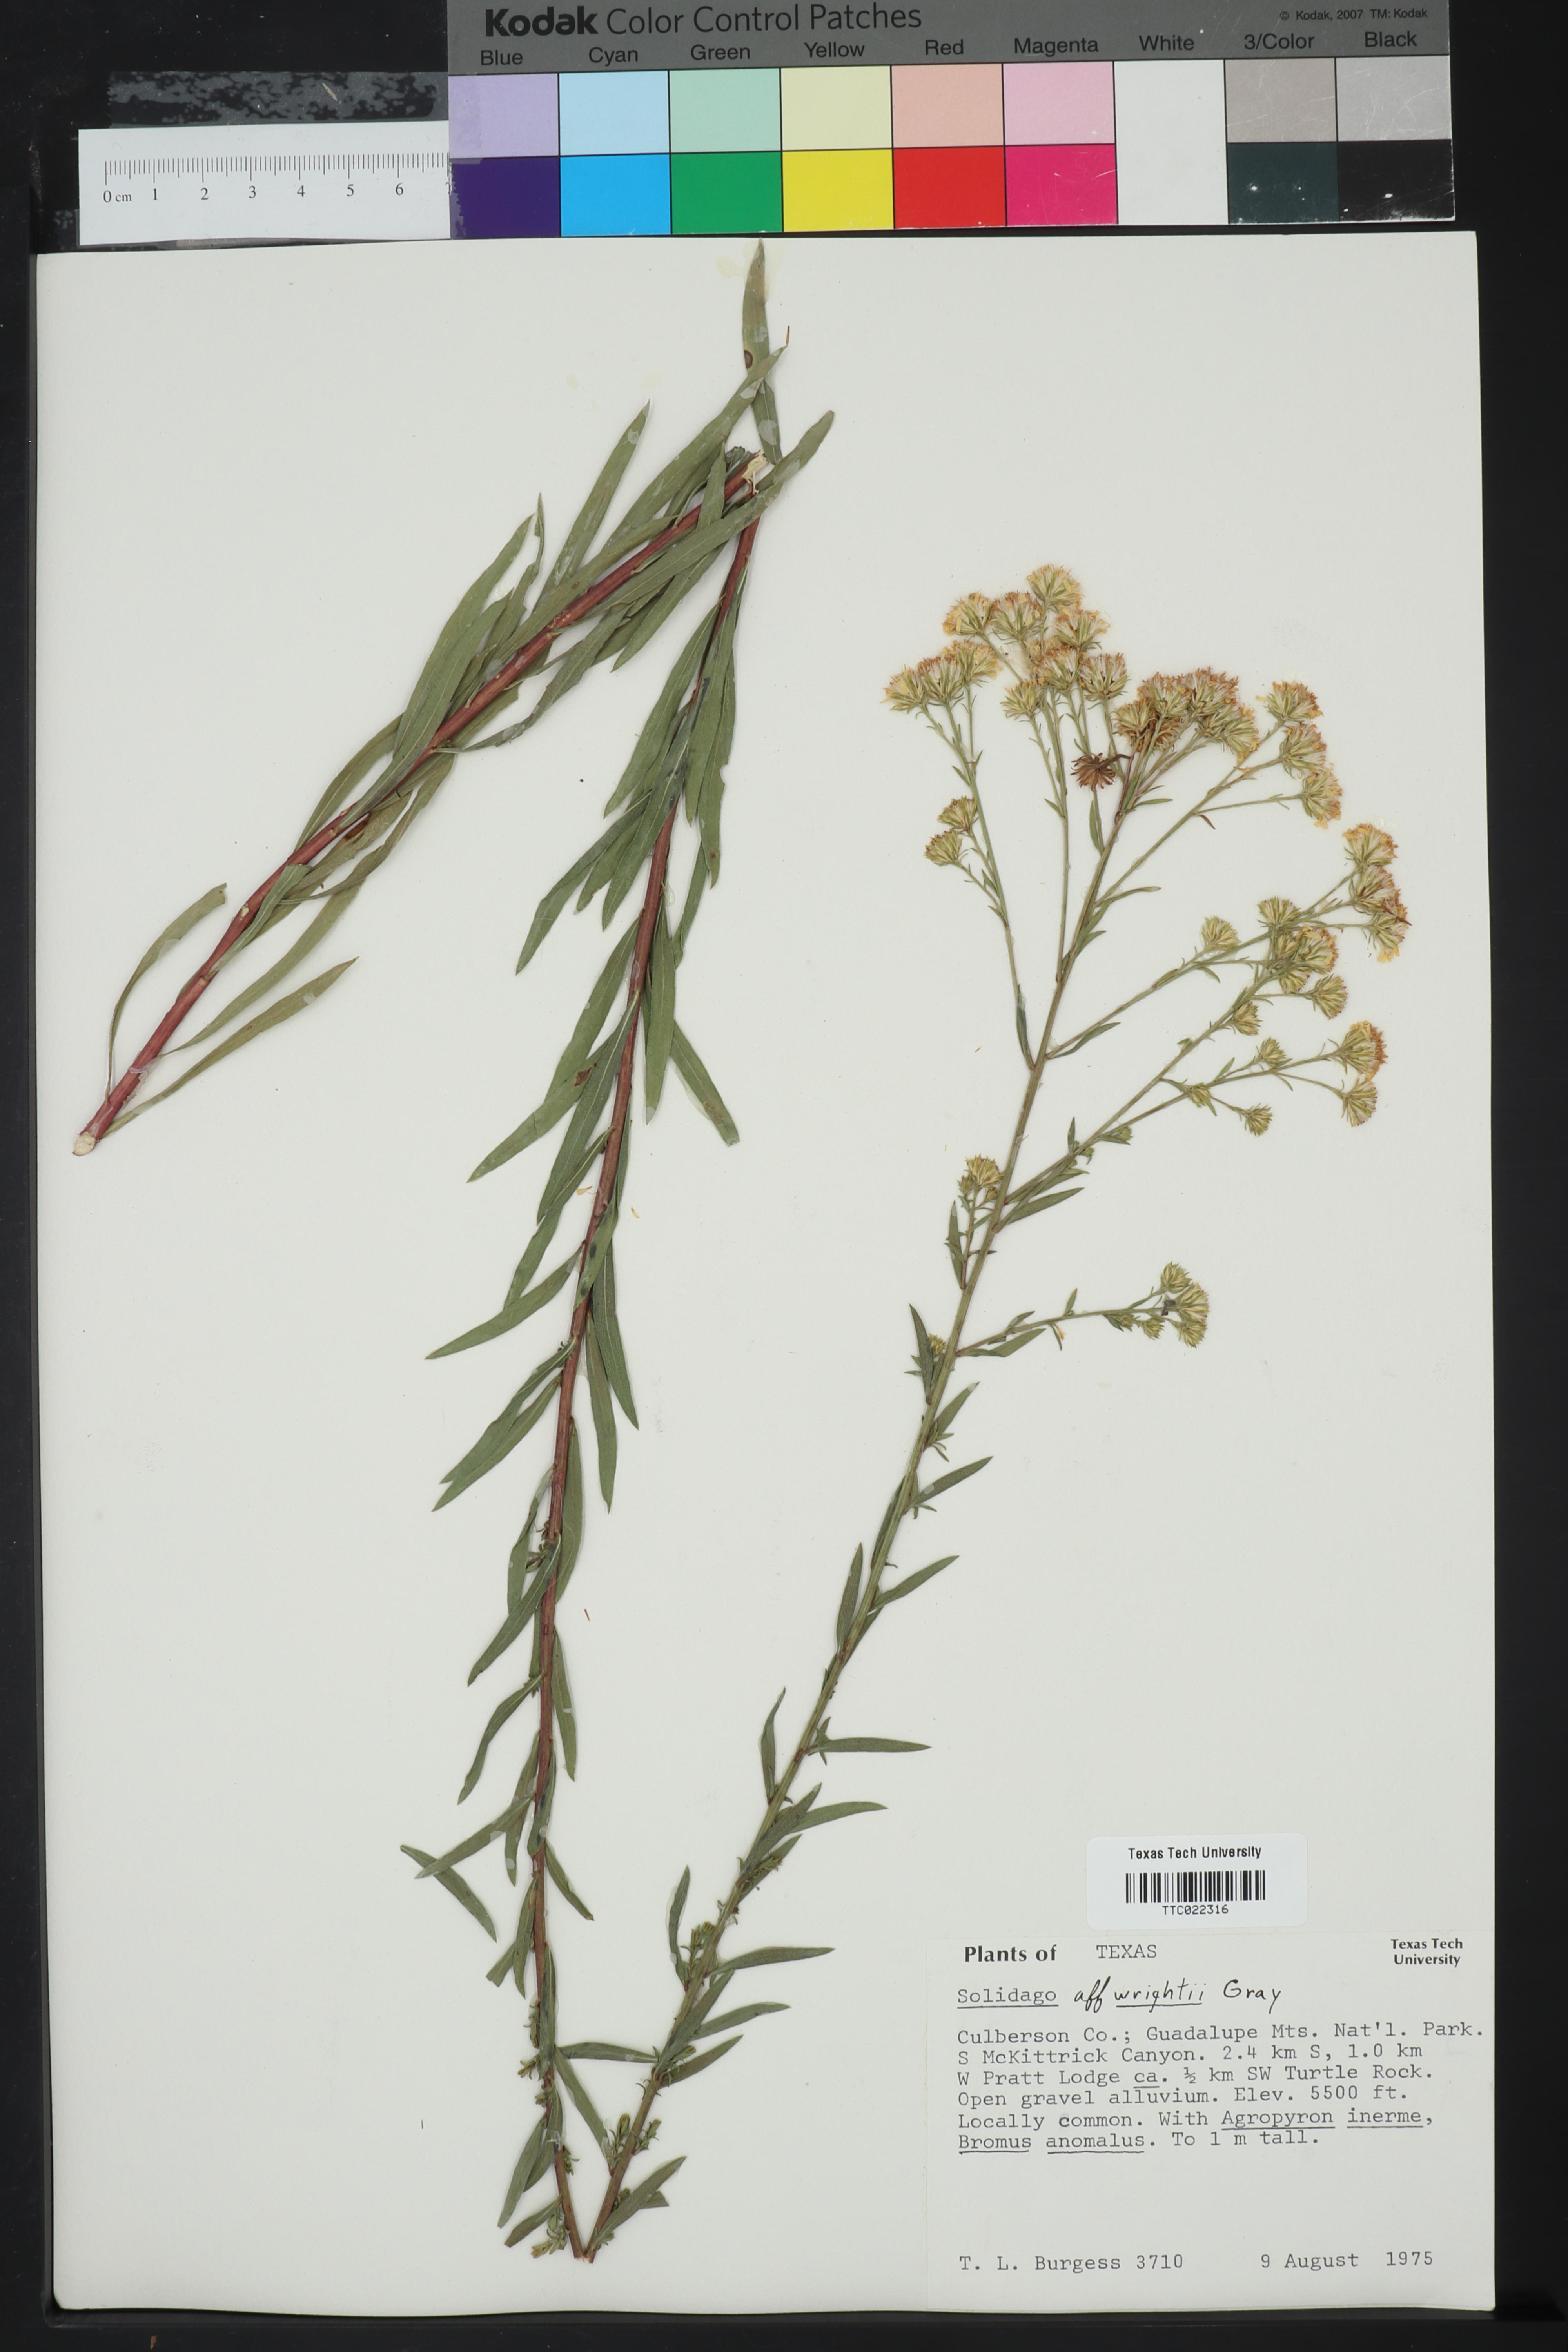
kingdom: Plantae
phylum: Tracheophyta
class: Magnoliopsida
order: Asterales
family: Asteraceae
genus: Solidago
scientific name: Solidago wrightii
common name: Wright's goldenrod
